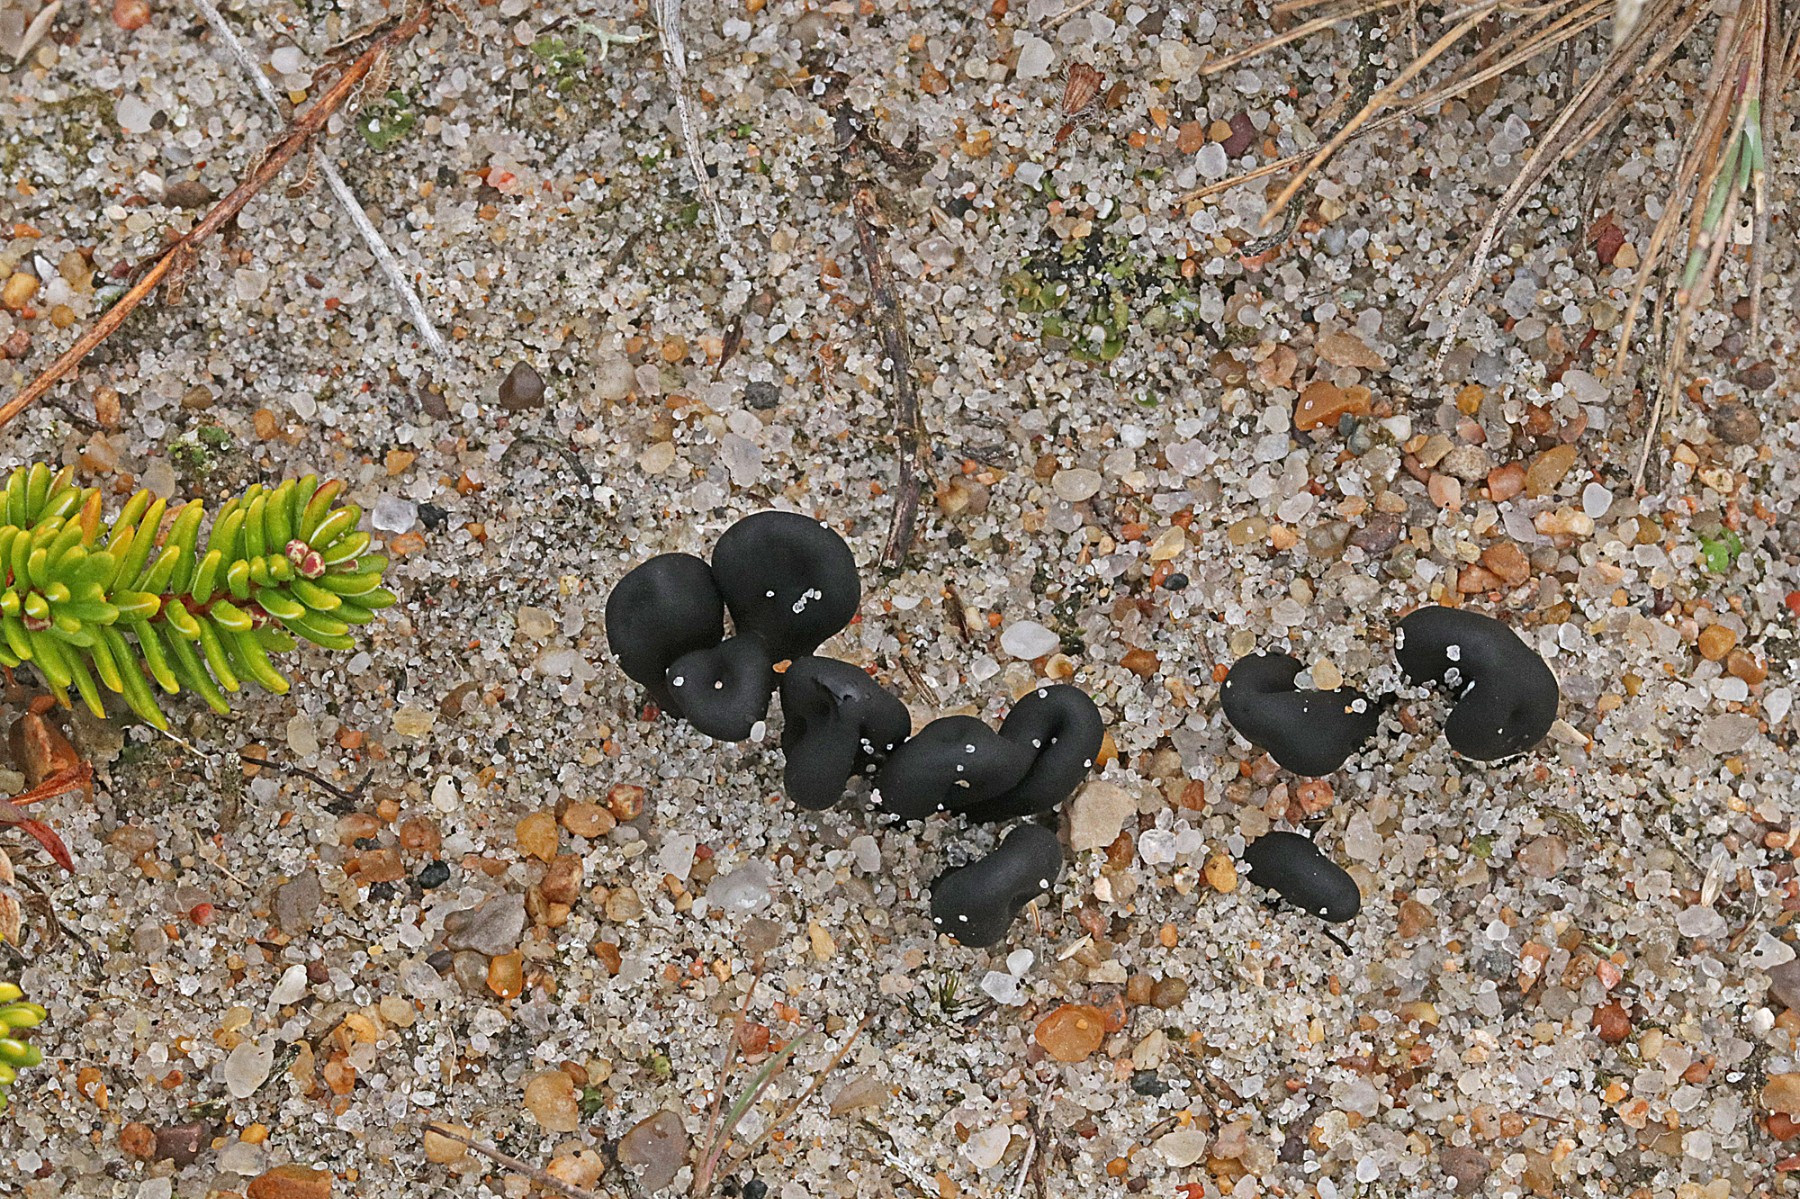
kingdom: Fungi
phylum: Ascomycota
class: Geoglossomycetes
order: Geoglossales
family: Geoglossaceae
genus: Sabuloglossum
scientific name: Sabuloglossum arenarium
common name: klit-jordtunge
